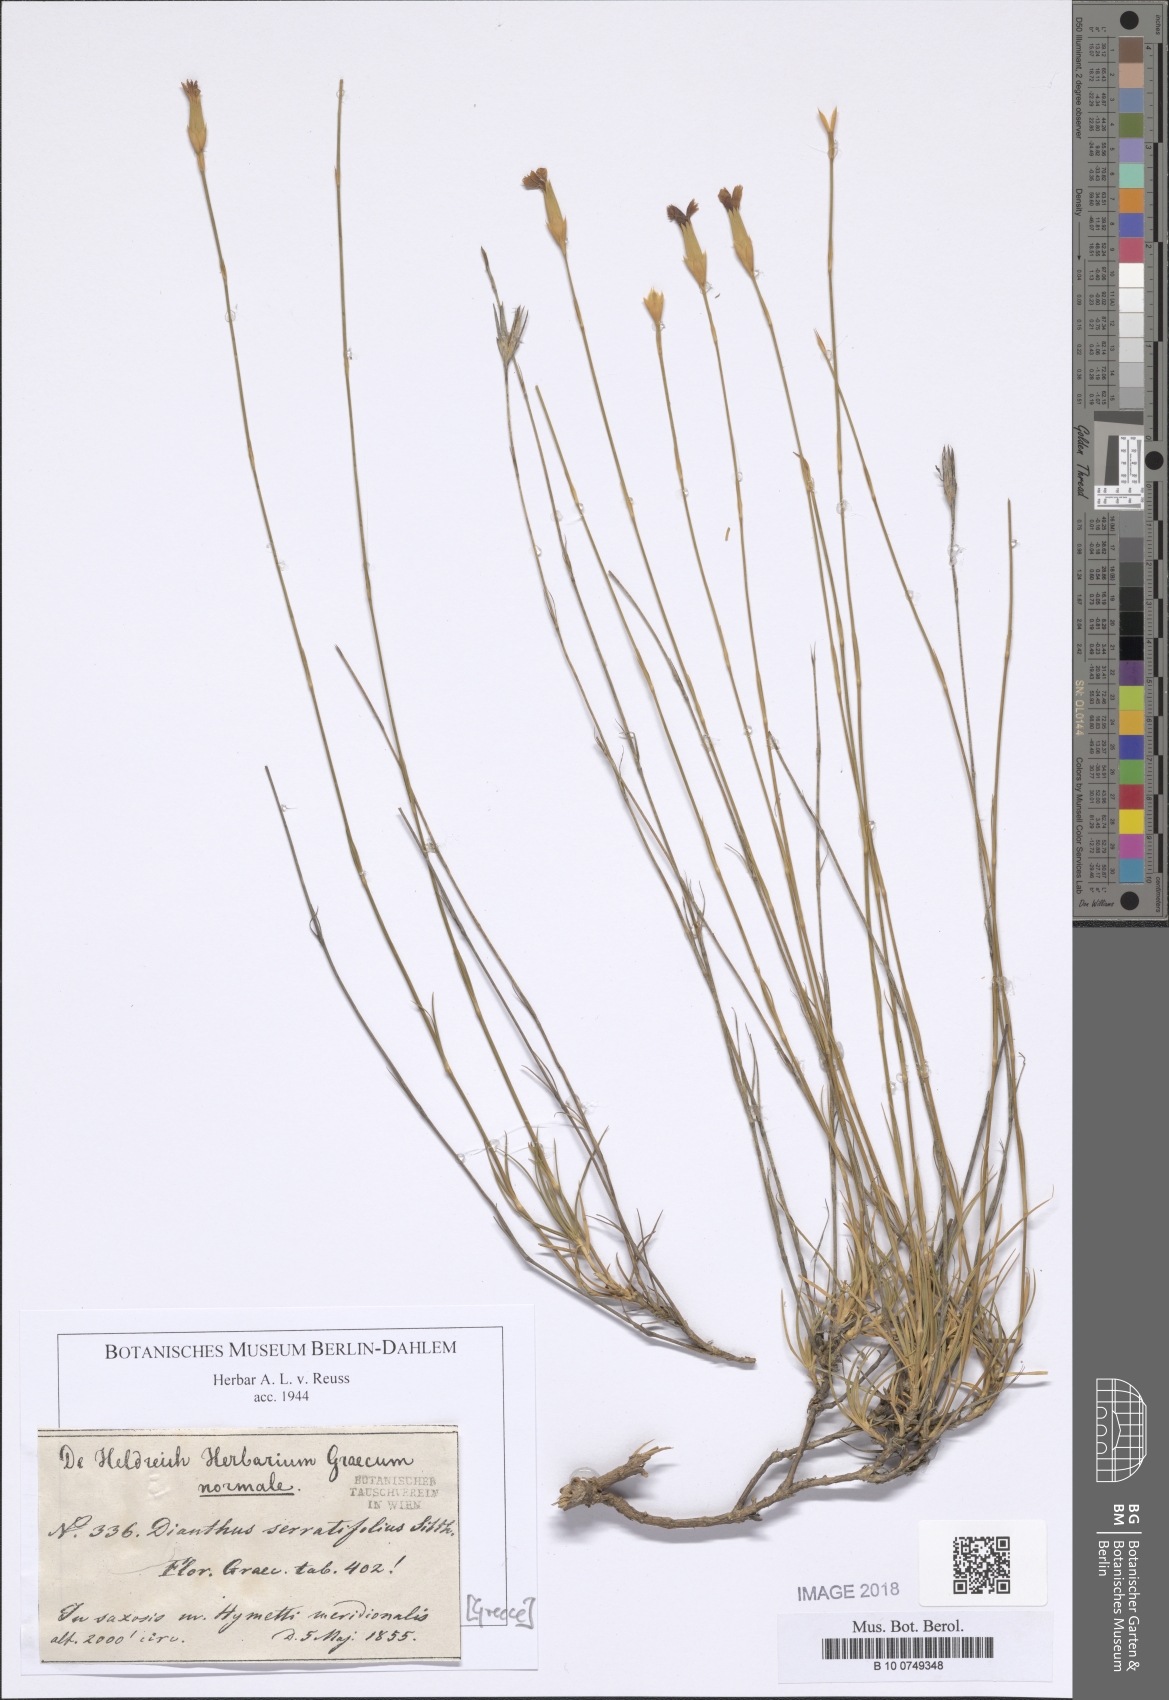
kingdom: Plantae
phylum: Tracheophyta
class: Magnoliopsida
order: Caryophyllales
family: Caryophyllaceae
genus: Dianthus
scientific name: Dianthus serratifolius
